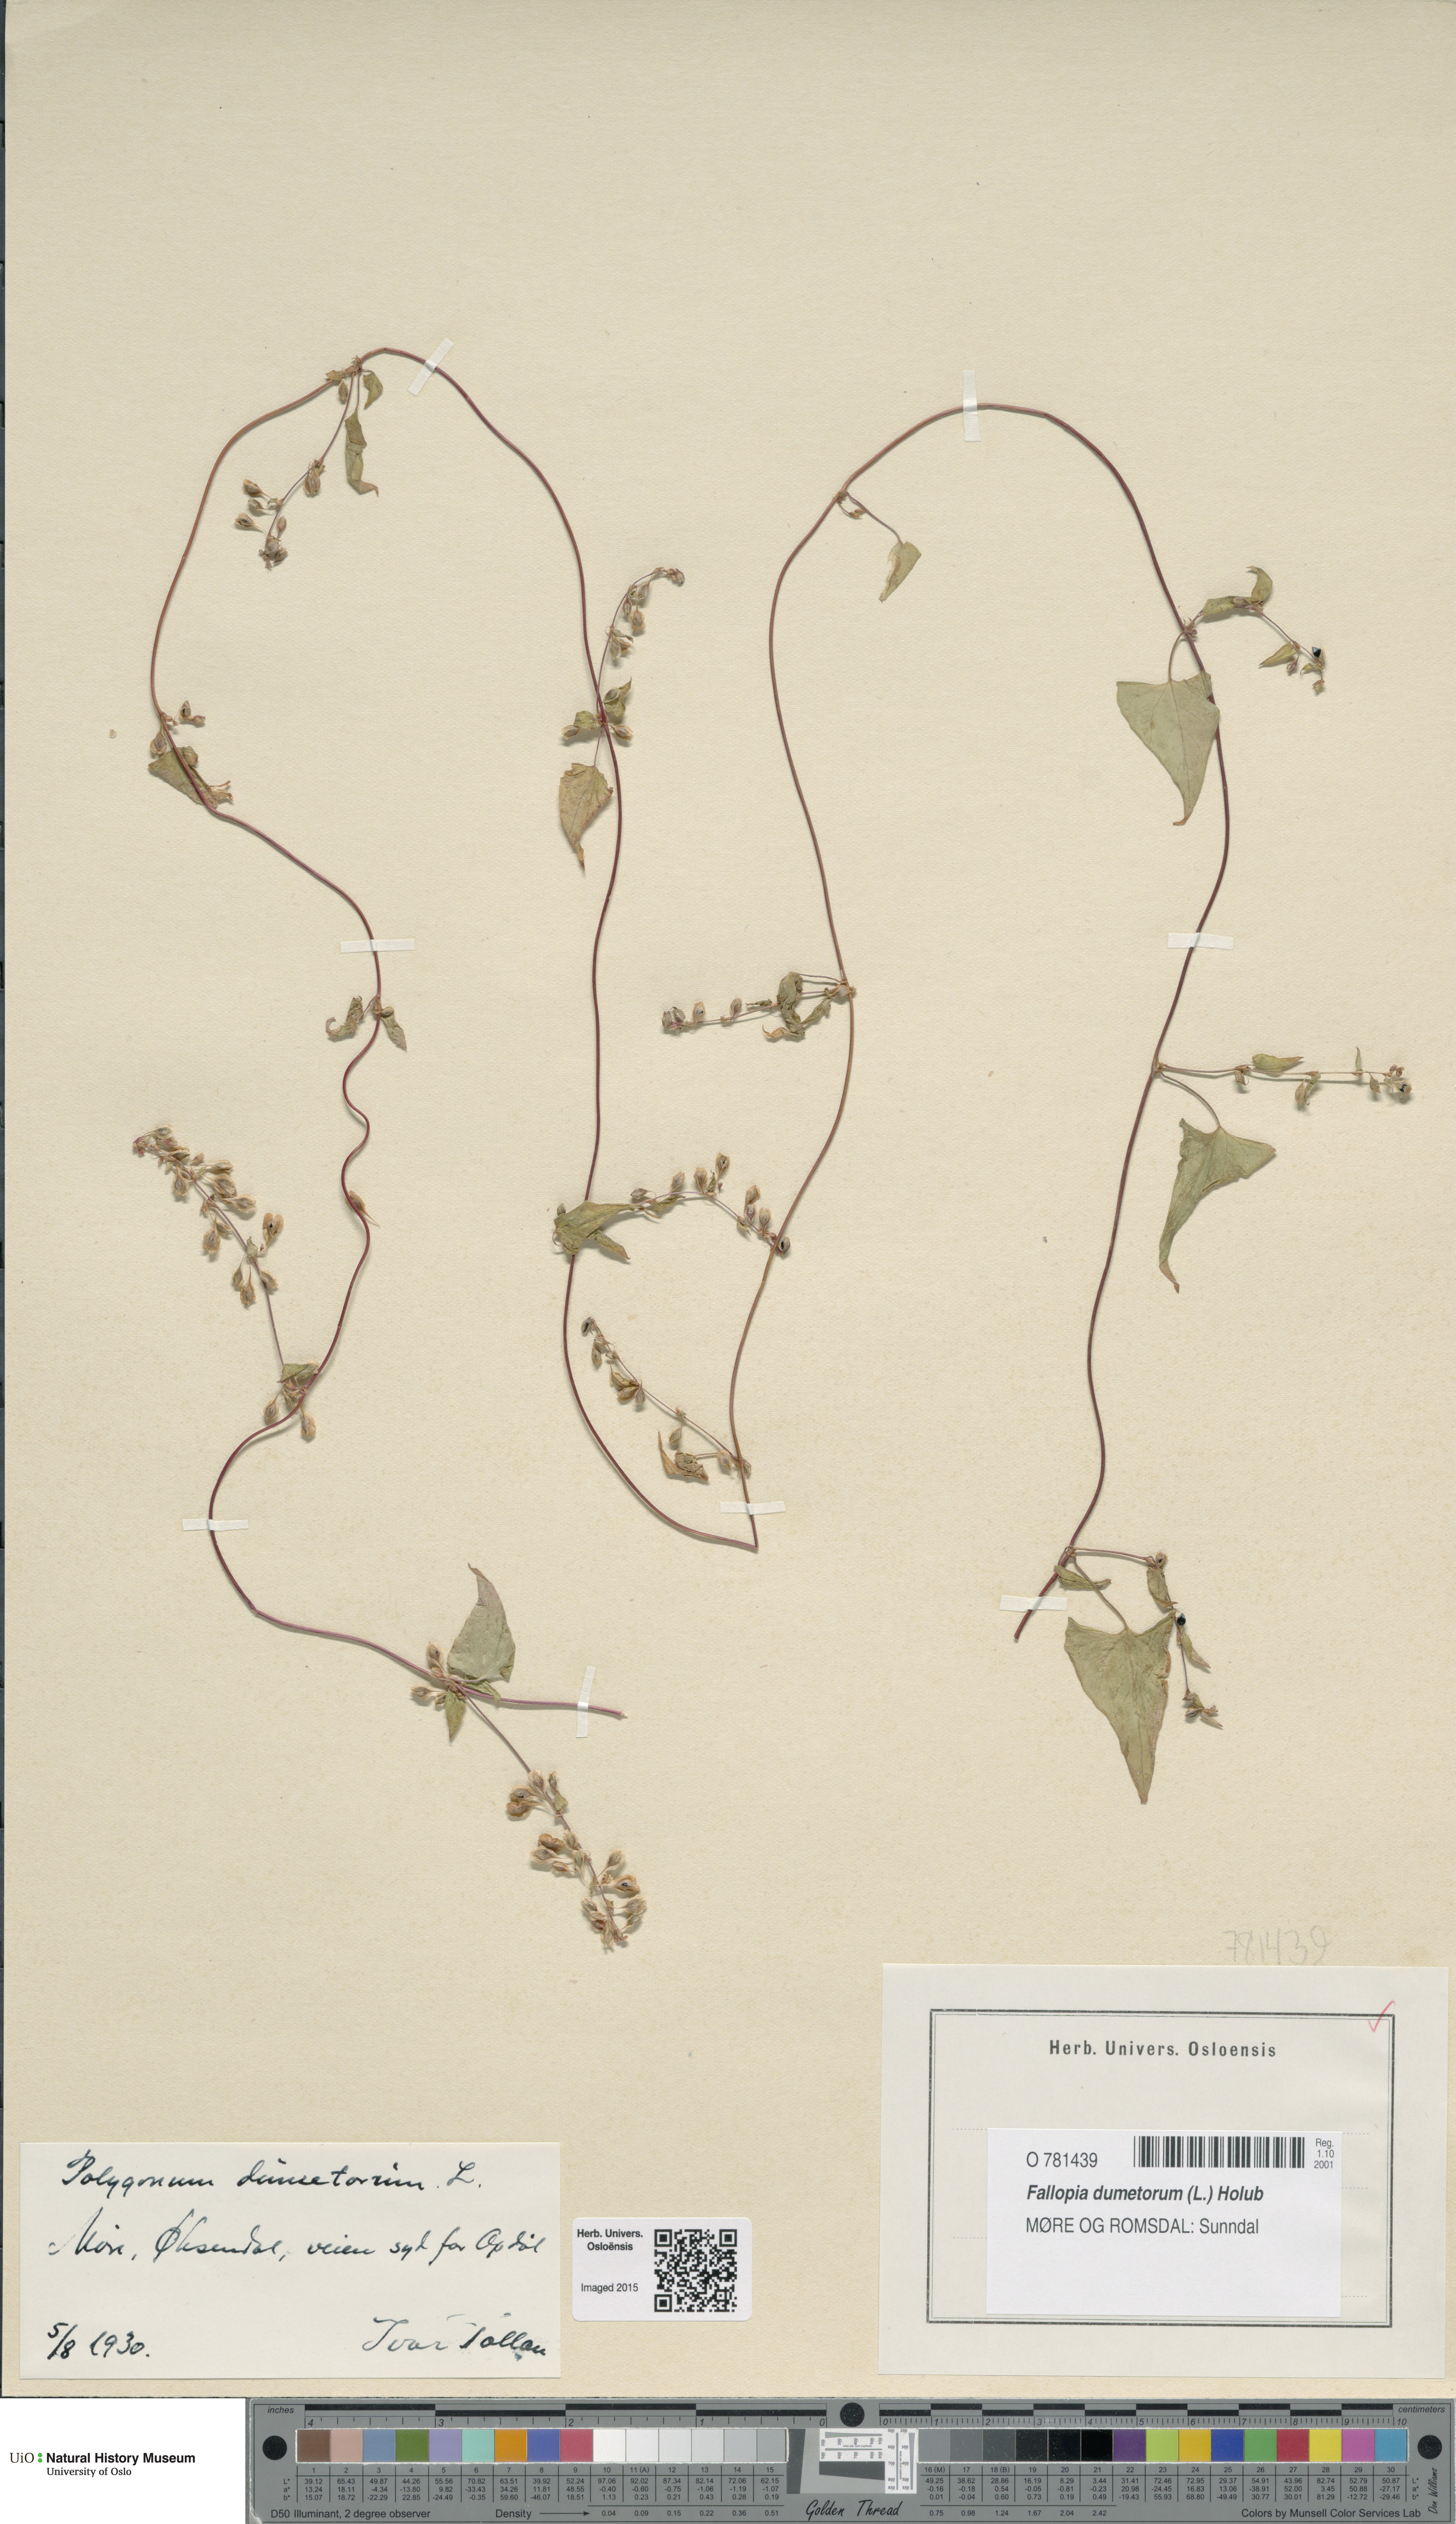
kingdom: Plantae
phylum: Tracheophyta
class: Magnoliopsida
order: Caryophyllales
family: Polygonaceae
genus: Fallopia
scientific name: Fallopia dumetorum
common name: Copse-bindweed
